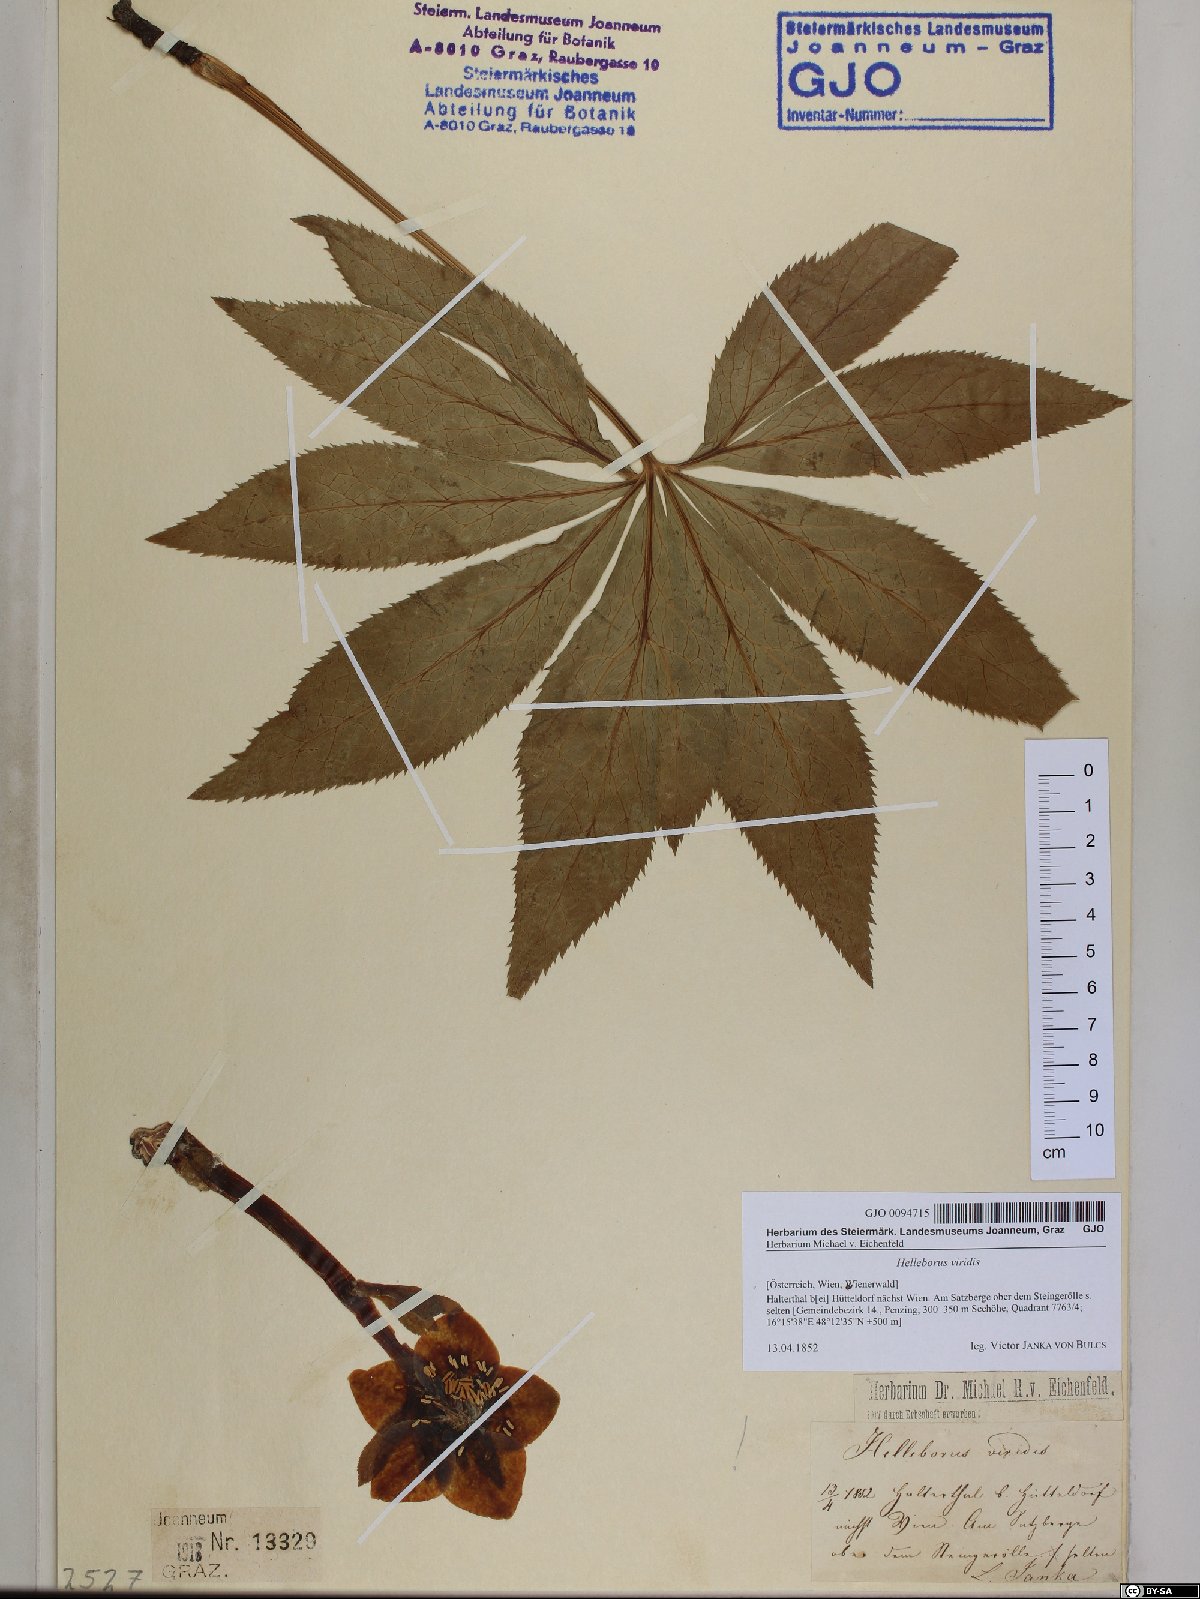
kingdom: Plantae
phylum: Tracheophyta
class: Magnoliopsida
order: Ranunculales
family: Ranunculaceae
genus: Helleborus
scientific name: Helleborus viridis
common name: Green hellebore
